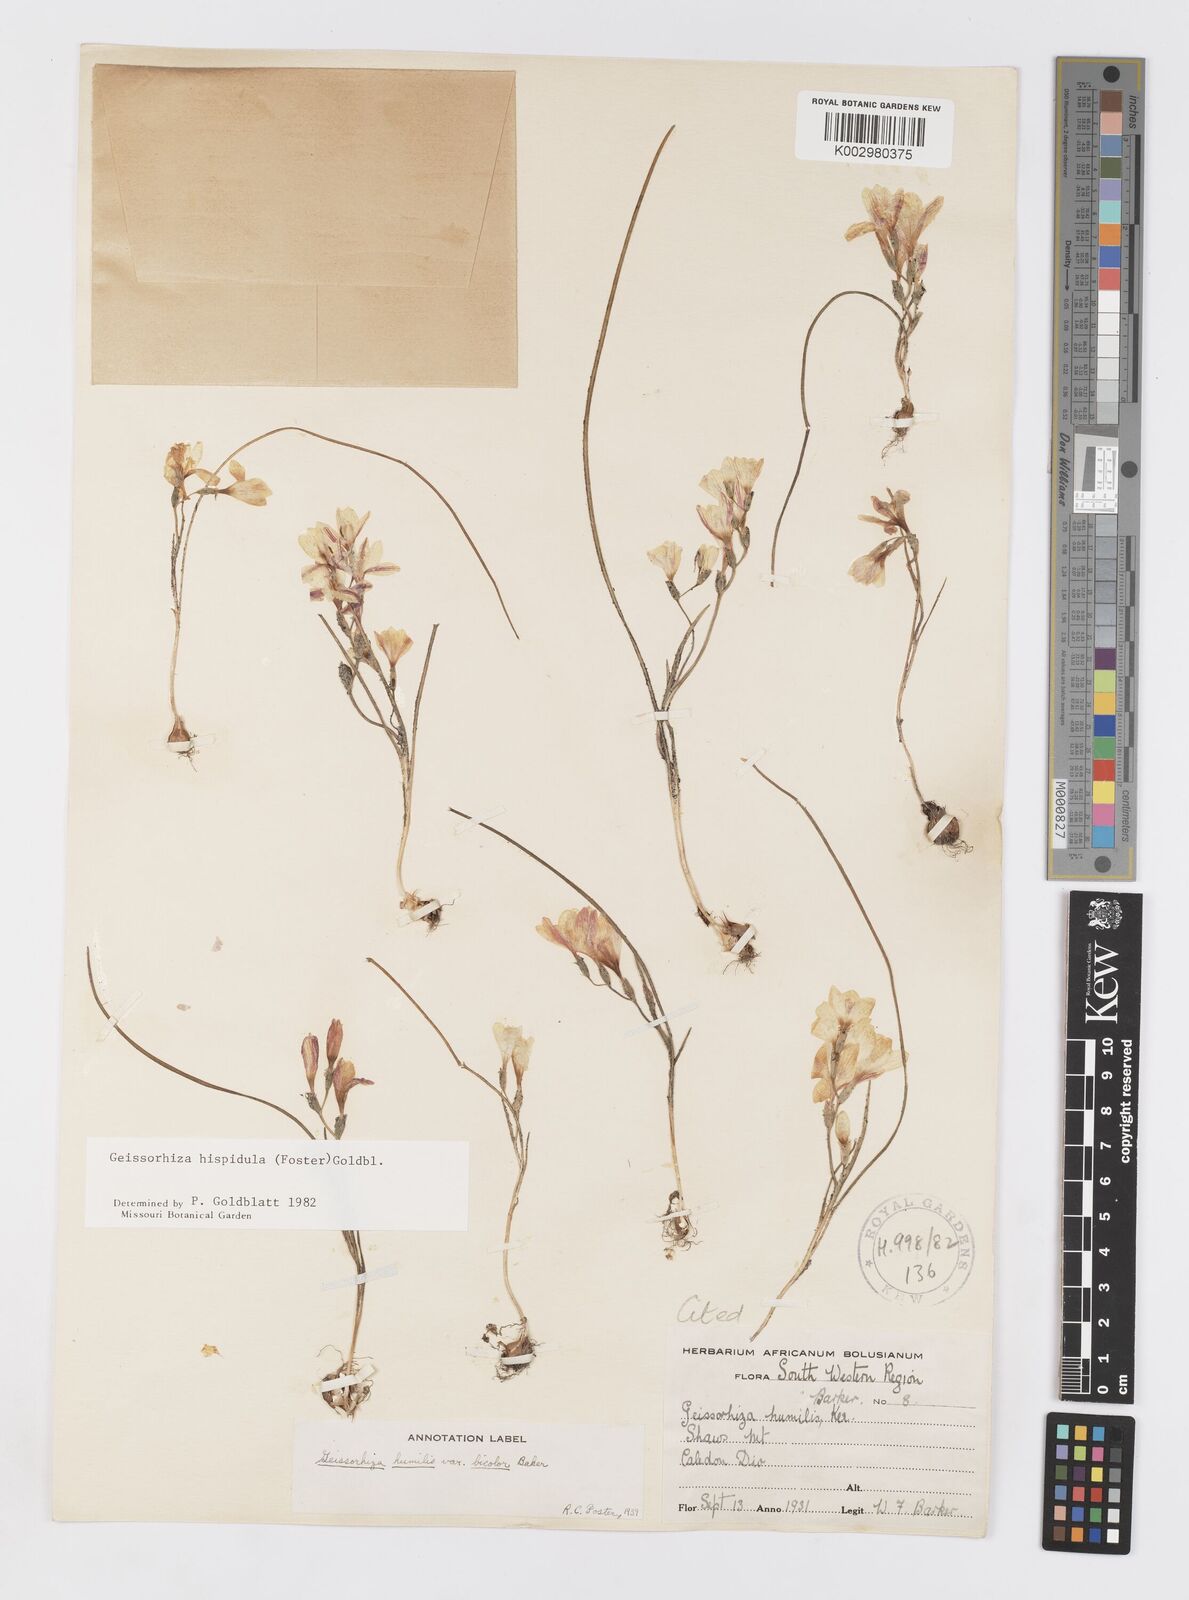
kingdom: Plantae
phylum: Tracheophyta
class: Liliopsida
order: Asparagales
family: Iridaceae
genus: Geissorhiza
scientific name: Geissorhiza hispidula
